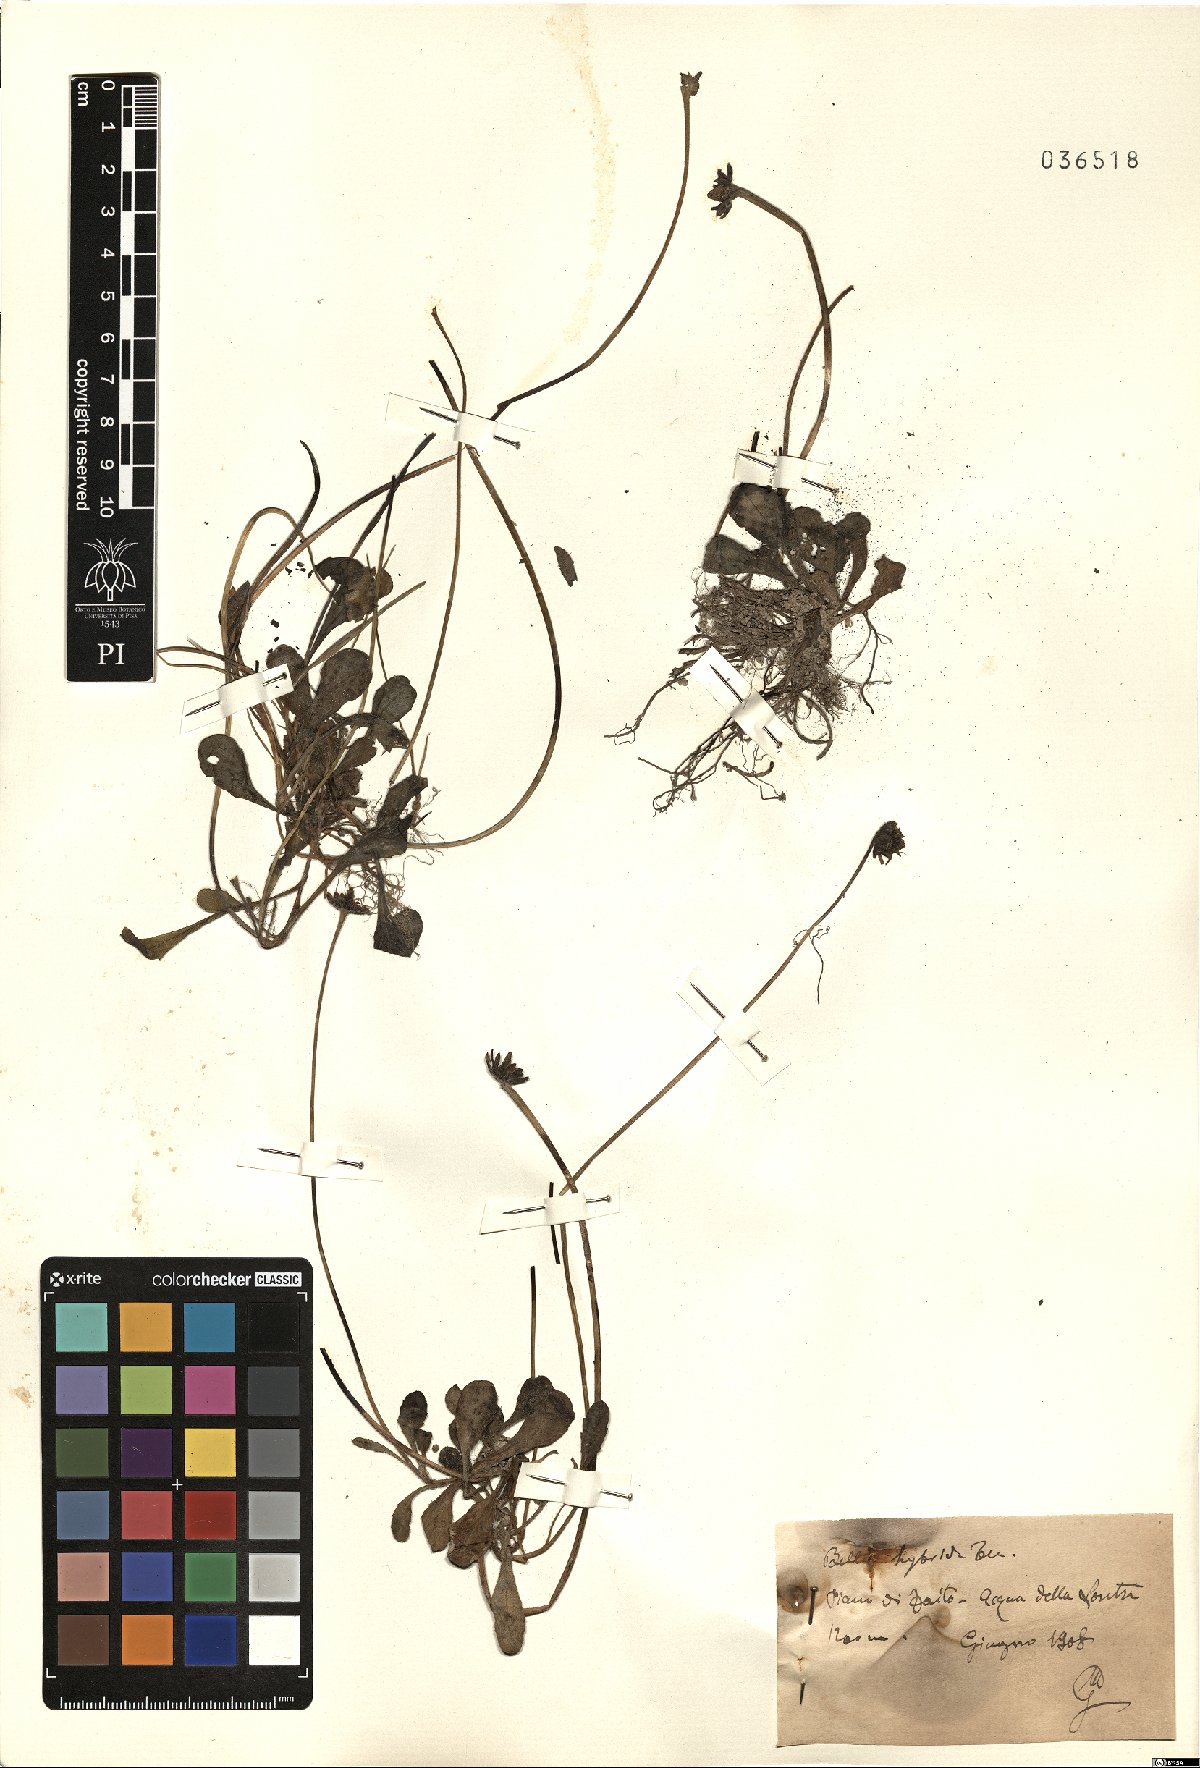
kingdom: Plantae
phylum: Tracheophyta
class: Magnoliopsida
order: Asterales
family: Asteraceae
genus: Bellis
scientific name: Bellis perennis
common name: Lawndaisy
